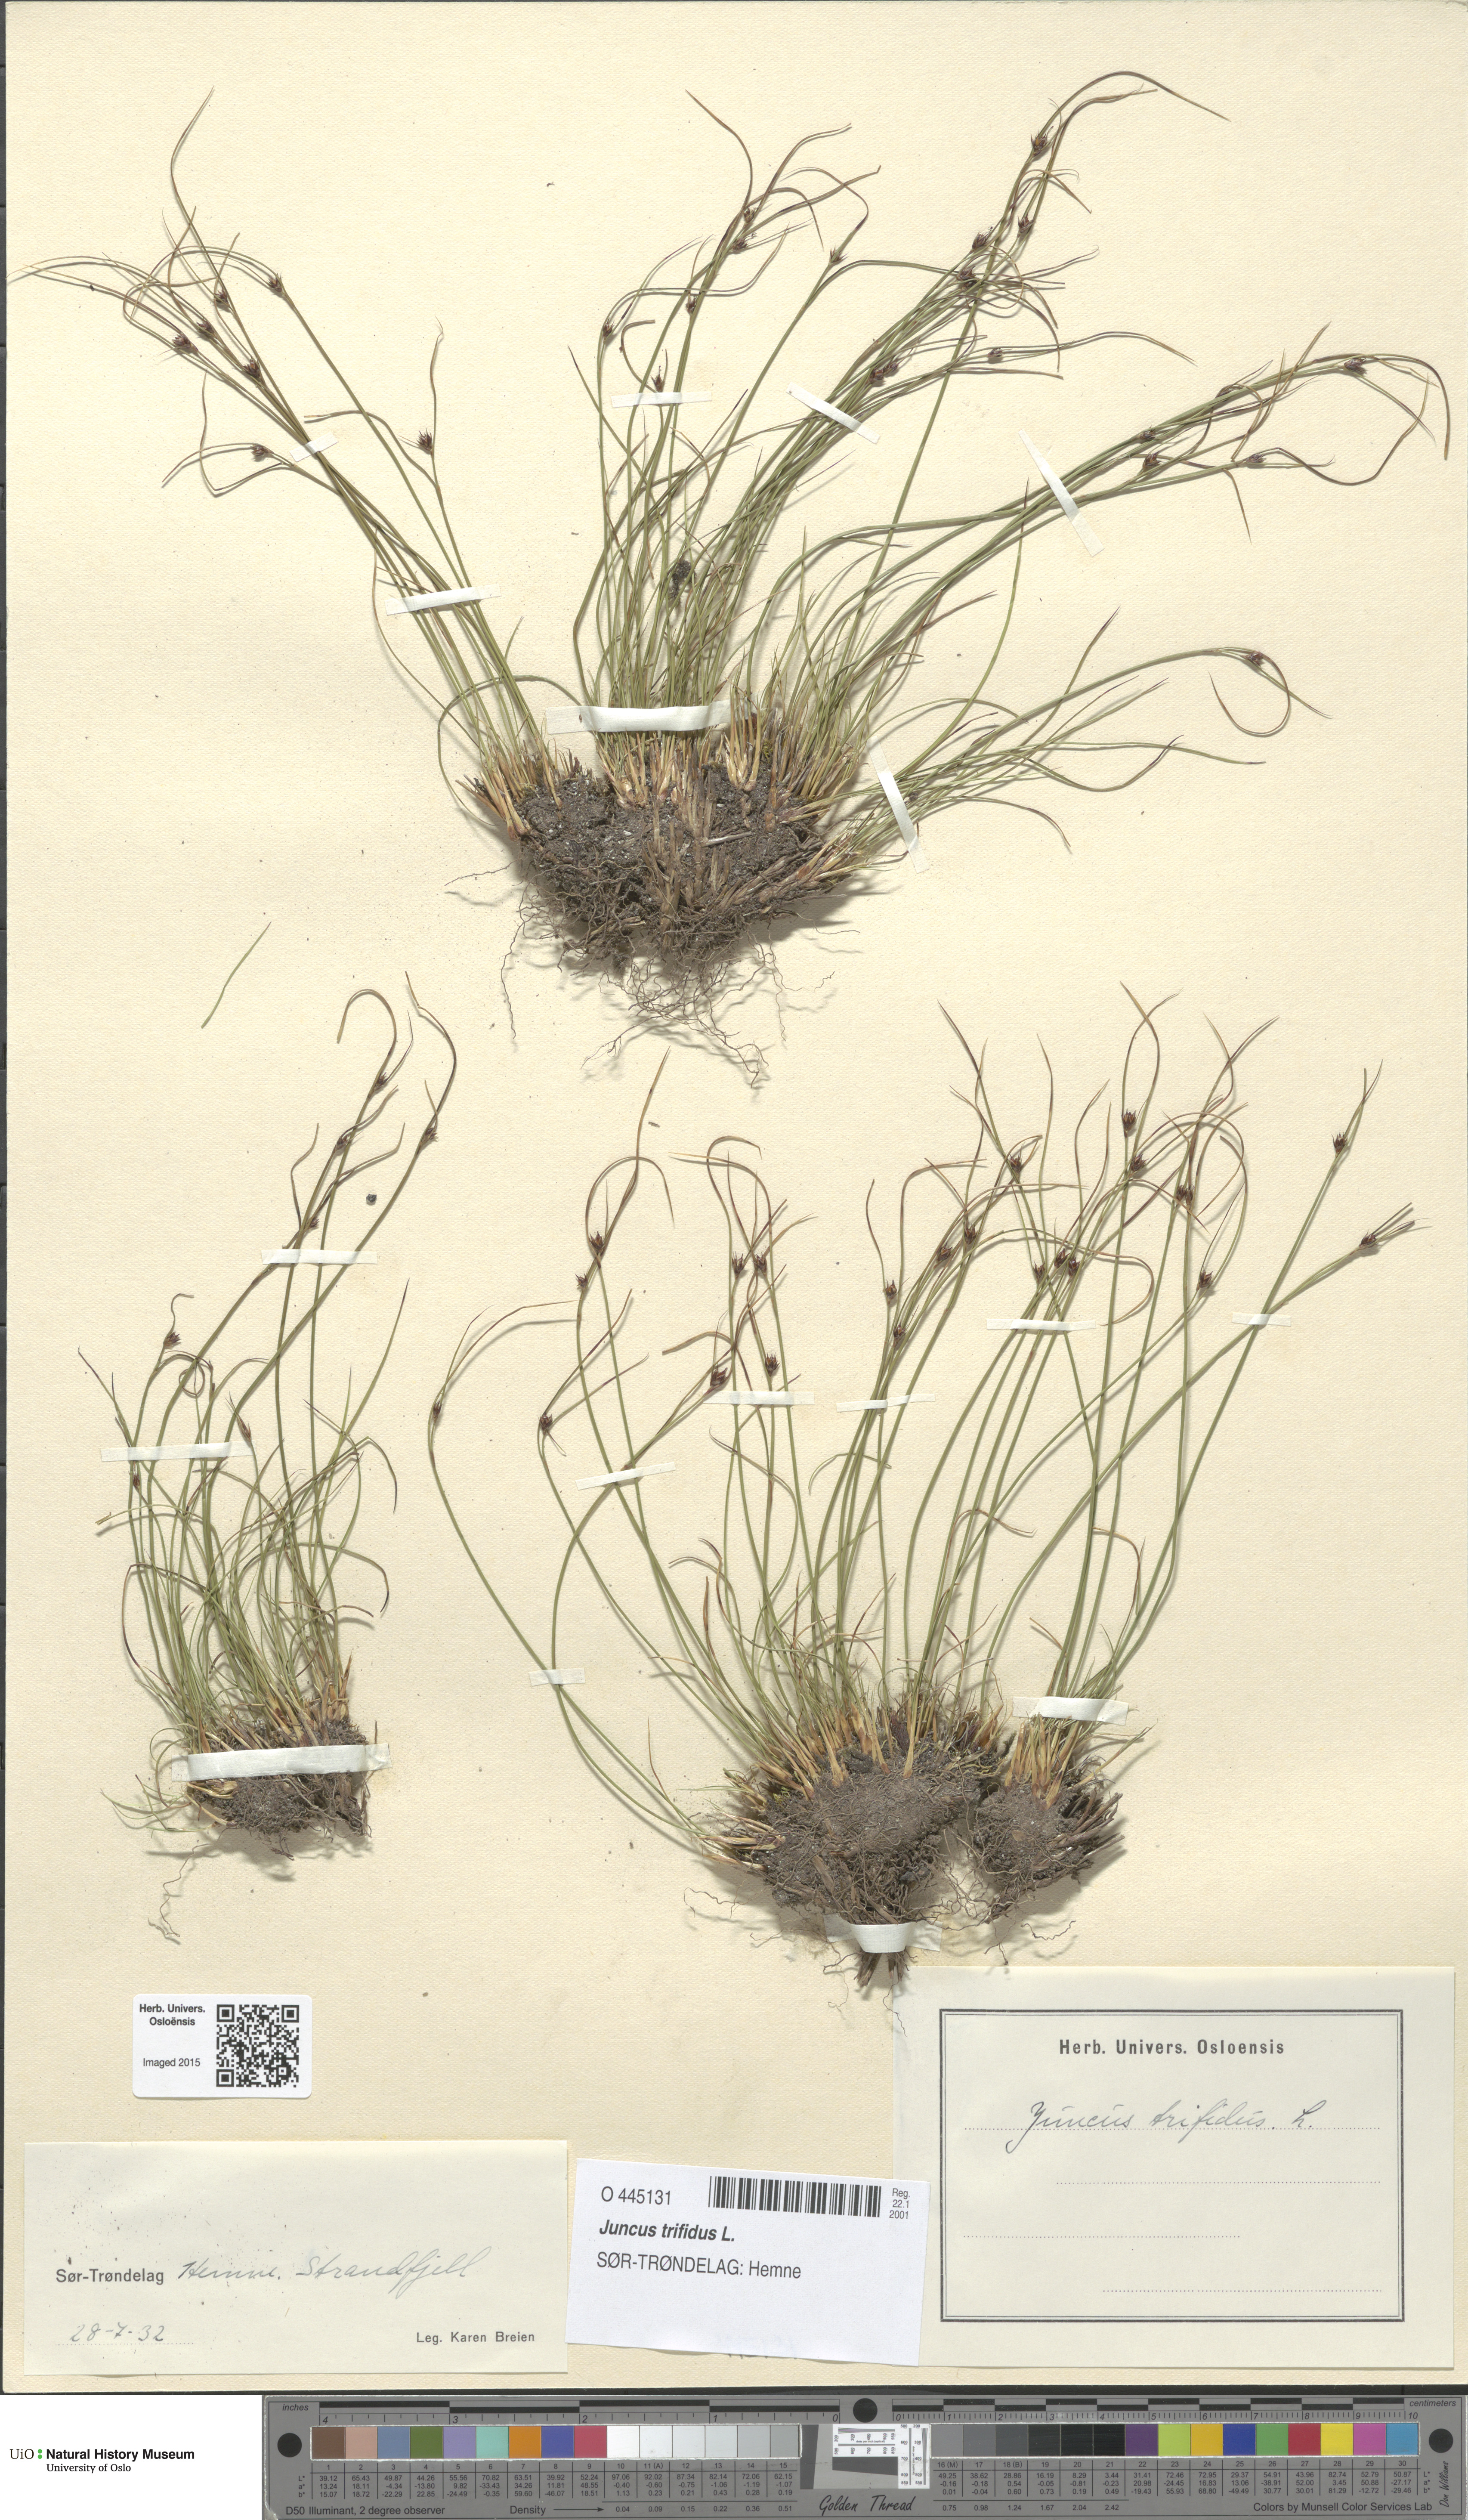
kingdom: Plantae
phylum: Tracheophyta
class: Liliopsida
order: Poales
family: Juncaceae
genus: Oreojuncus
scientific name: Oreojuncus trifidus
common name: Highland rush
